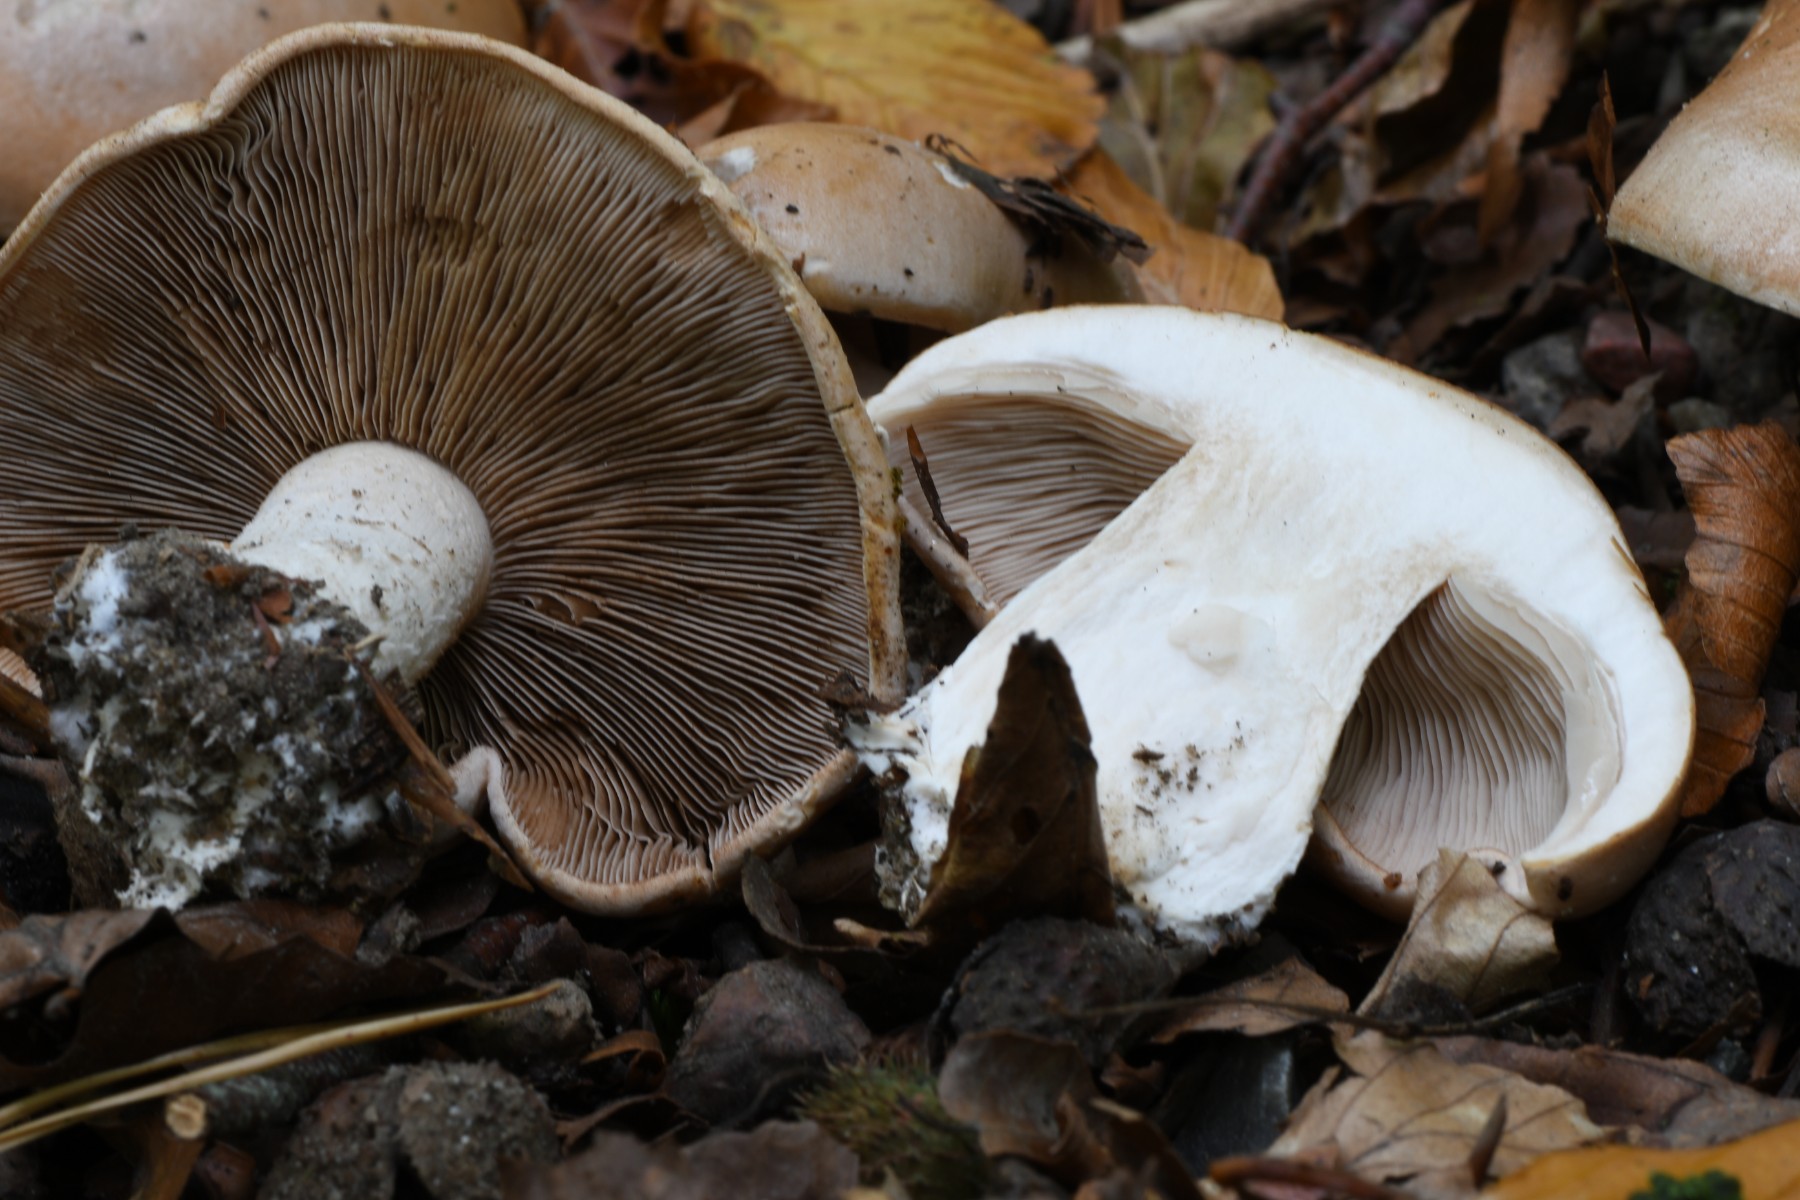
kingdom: Fungi
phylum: Basidiomycota
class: Agaricomycetes
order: Agaricales
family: Hymenogastraceae
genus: Hebeloma
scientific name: Hebeloma sinapizans
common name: ræddike-tåreblad
